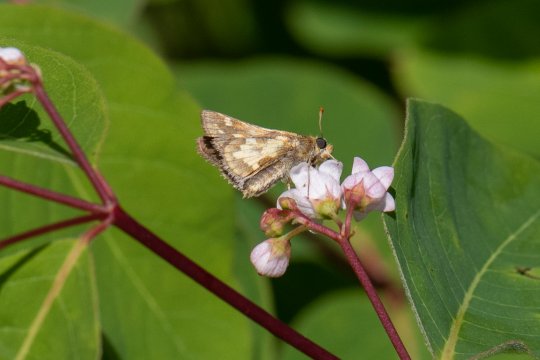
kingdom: Animalia
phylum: Arthropoda
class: Insecta
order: Lepidoptera
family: Hesperiidae
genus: Polites
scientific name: Polites coras
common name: Peck's Skipper
